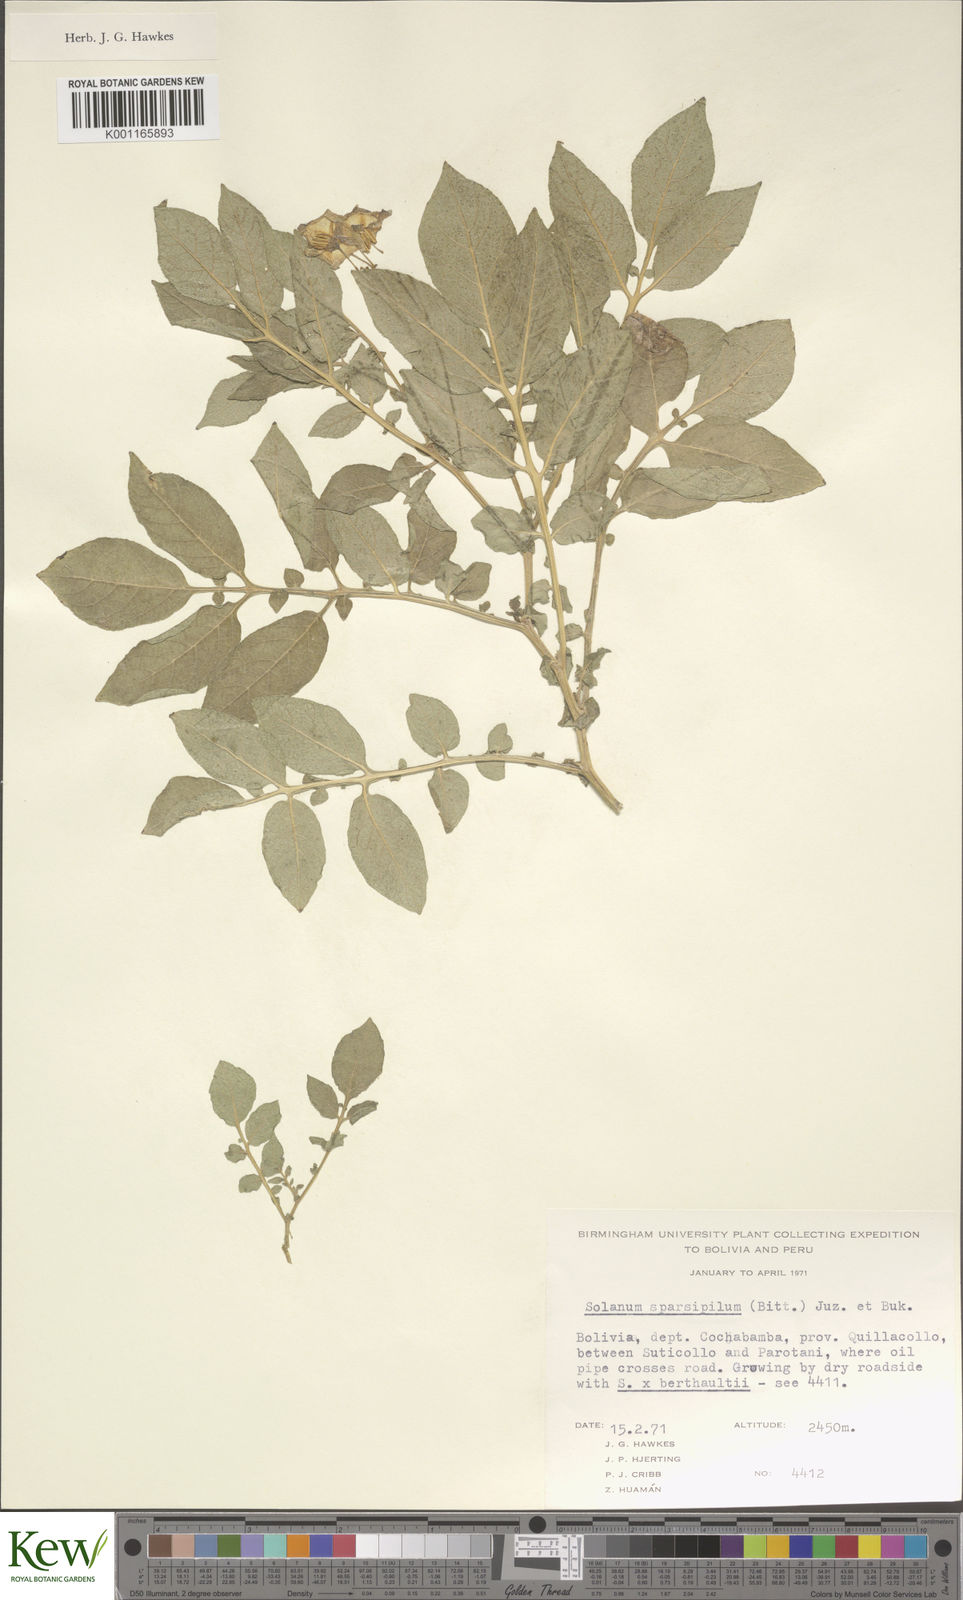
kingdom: Plantae
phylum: Tracheophyta
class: Magnoliopsida
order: Solanales
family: Solanaceae
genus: Solanum
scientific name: Solanum brevicaule
